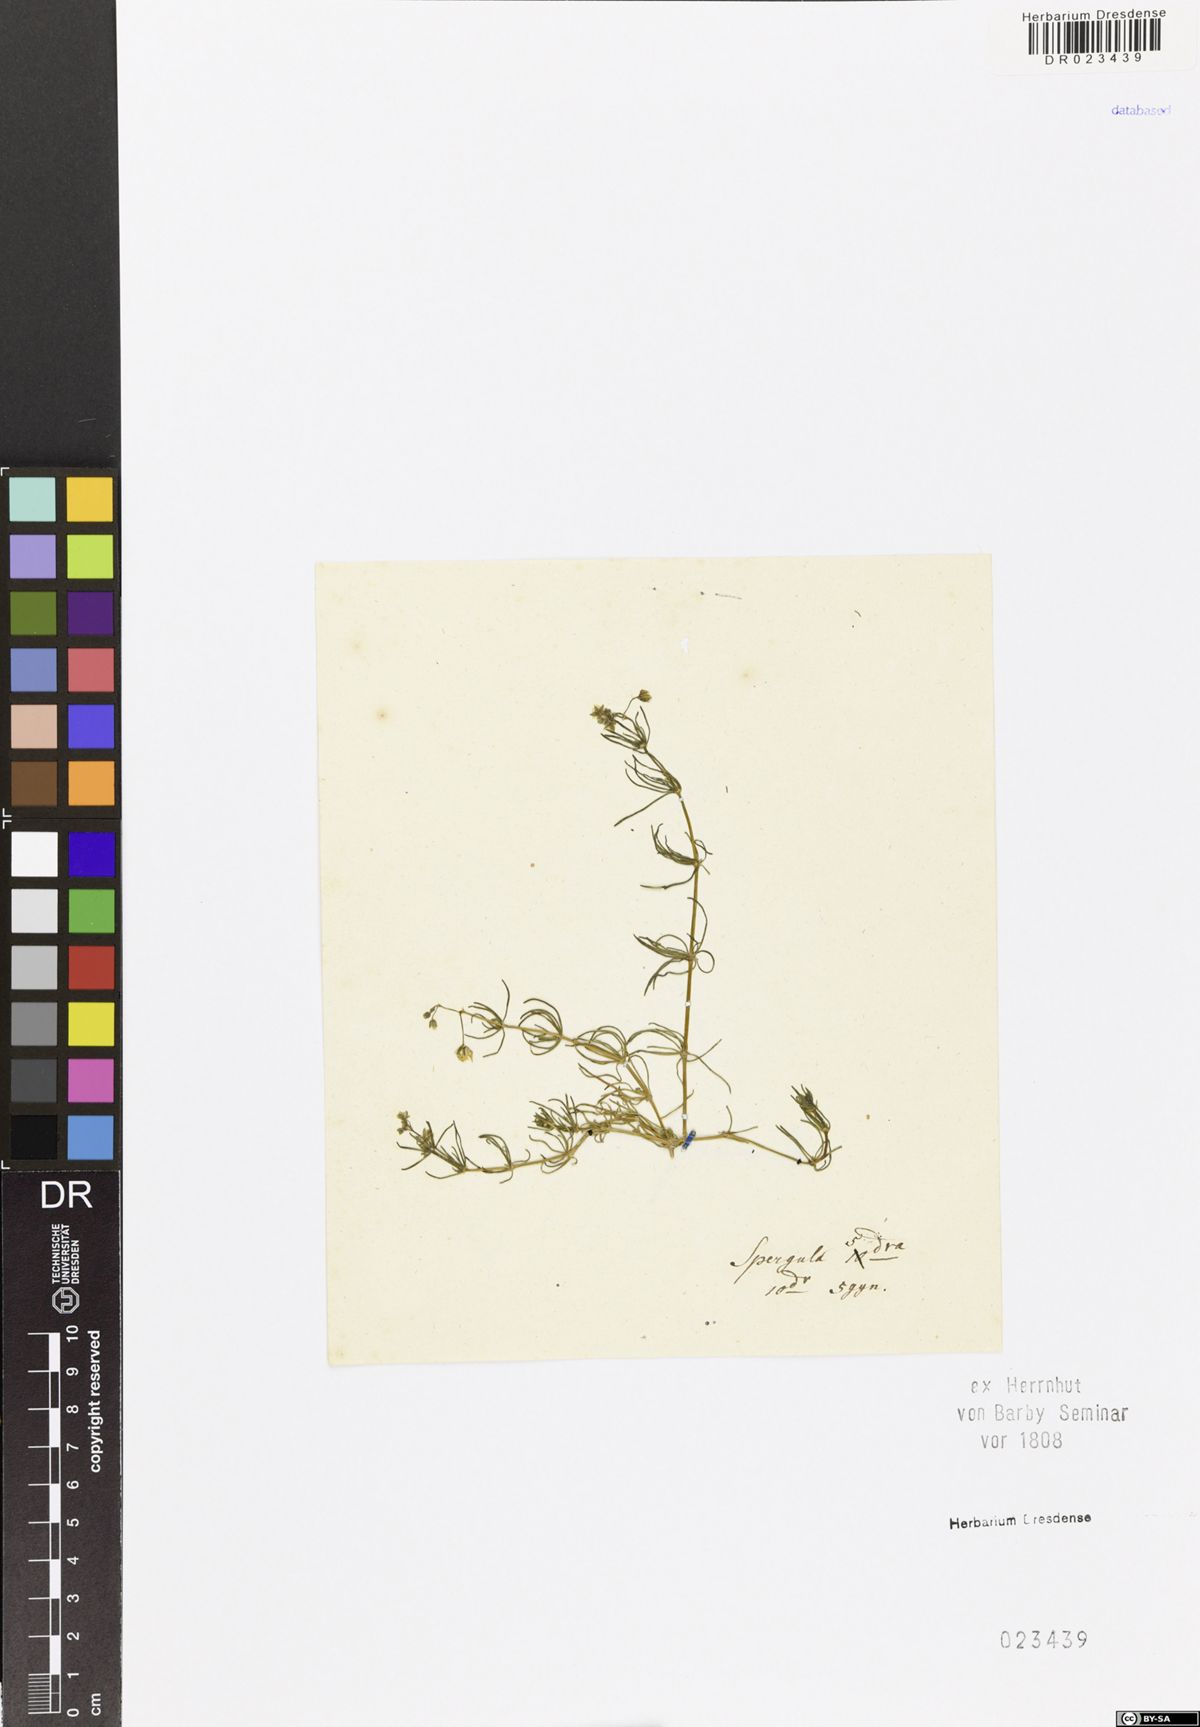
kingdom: Plantae
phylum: Tracheophyta
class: Magnoliopsida
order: Caryophyllales
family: Caryophyllaceae
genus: Spergula
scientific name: Spergula arvensis
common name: Corn spurrey
